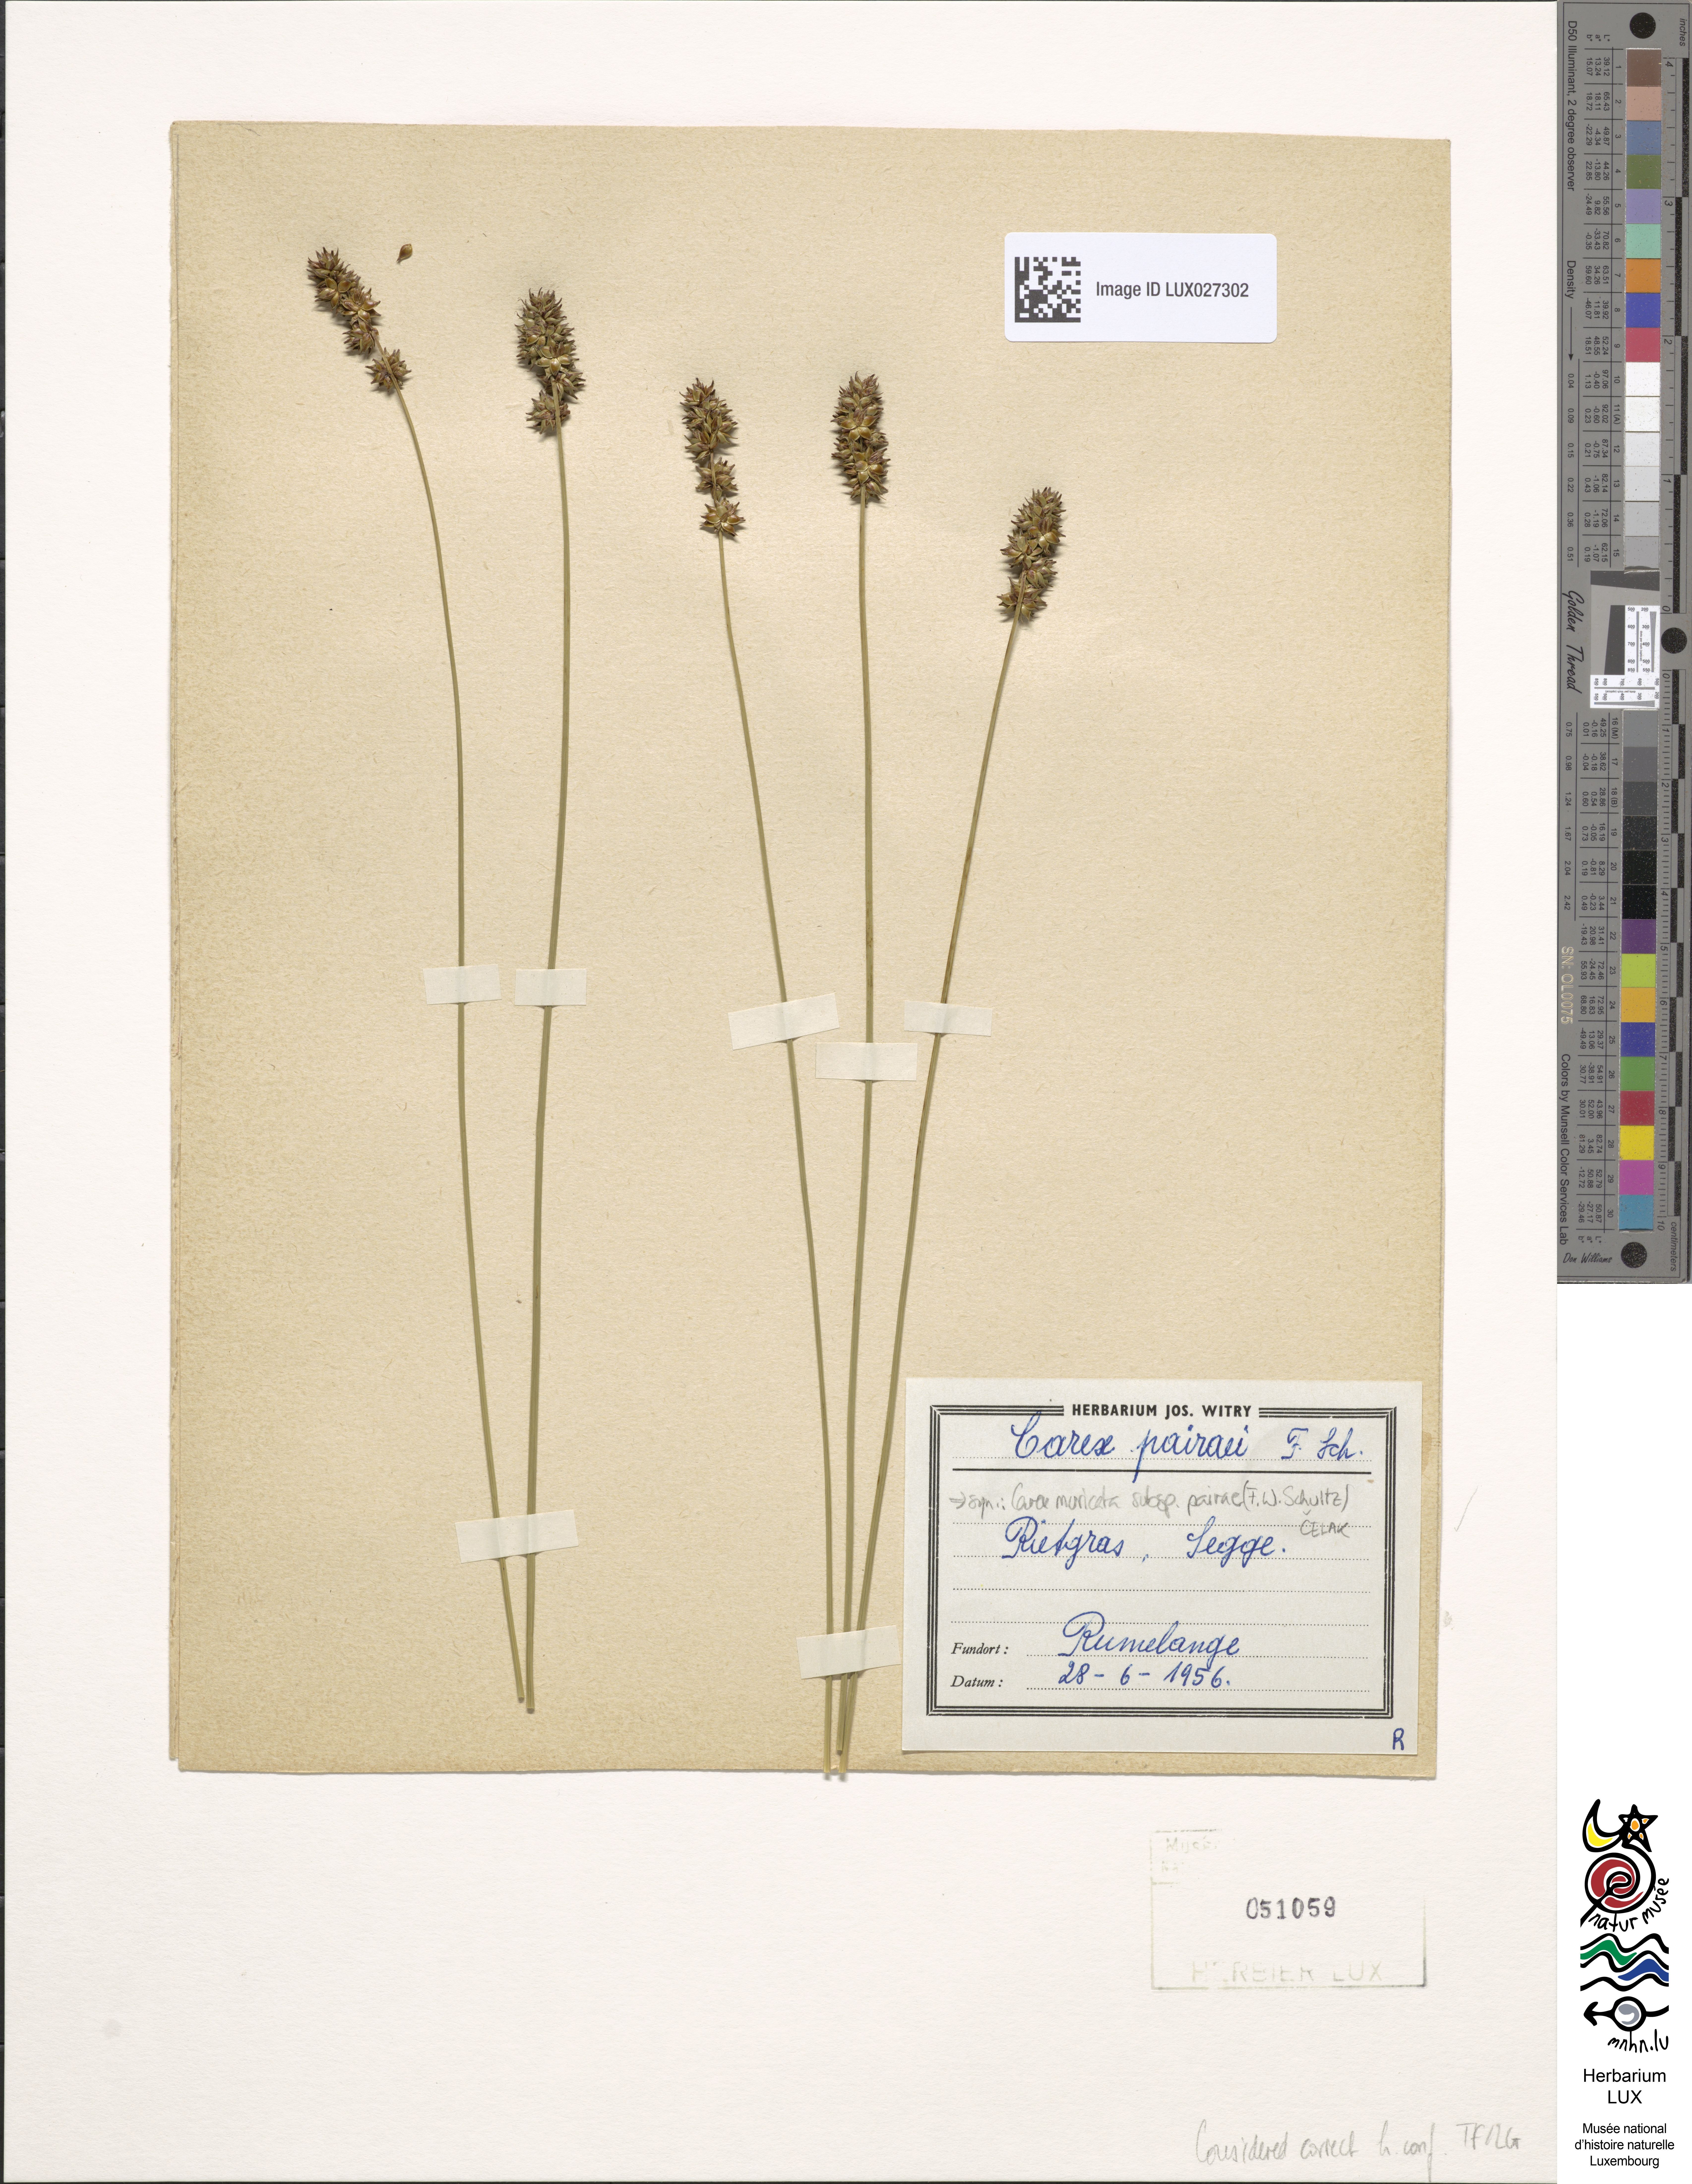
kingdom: Plantae
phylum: Tracheophyta
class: Liliopsida
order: Poales
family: Cyperaceae
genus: Carex
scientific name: Carex muricata
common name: Rough sedge
